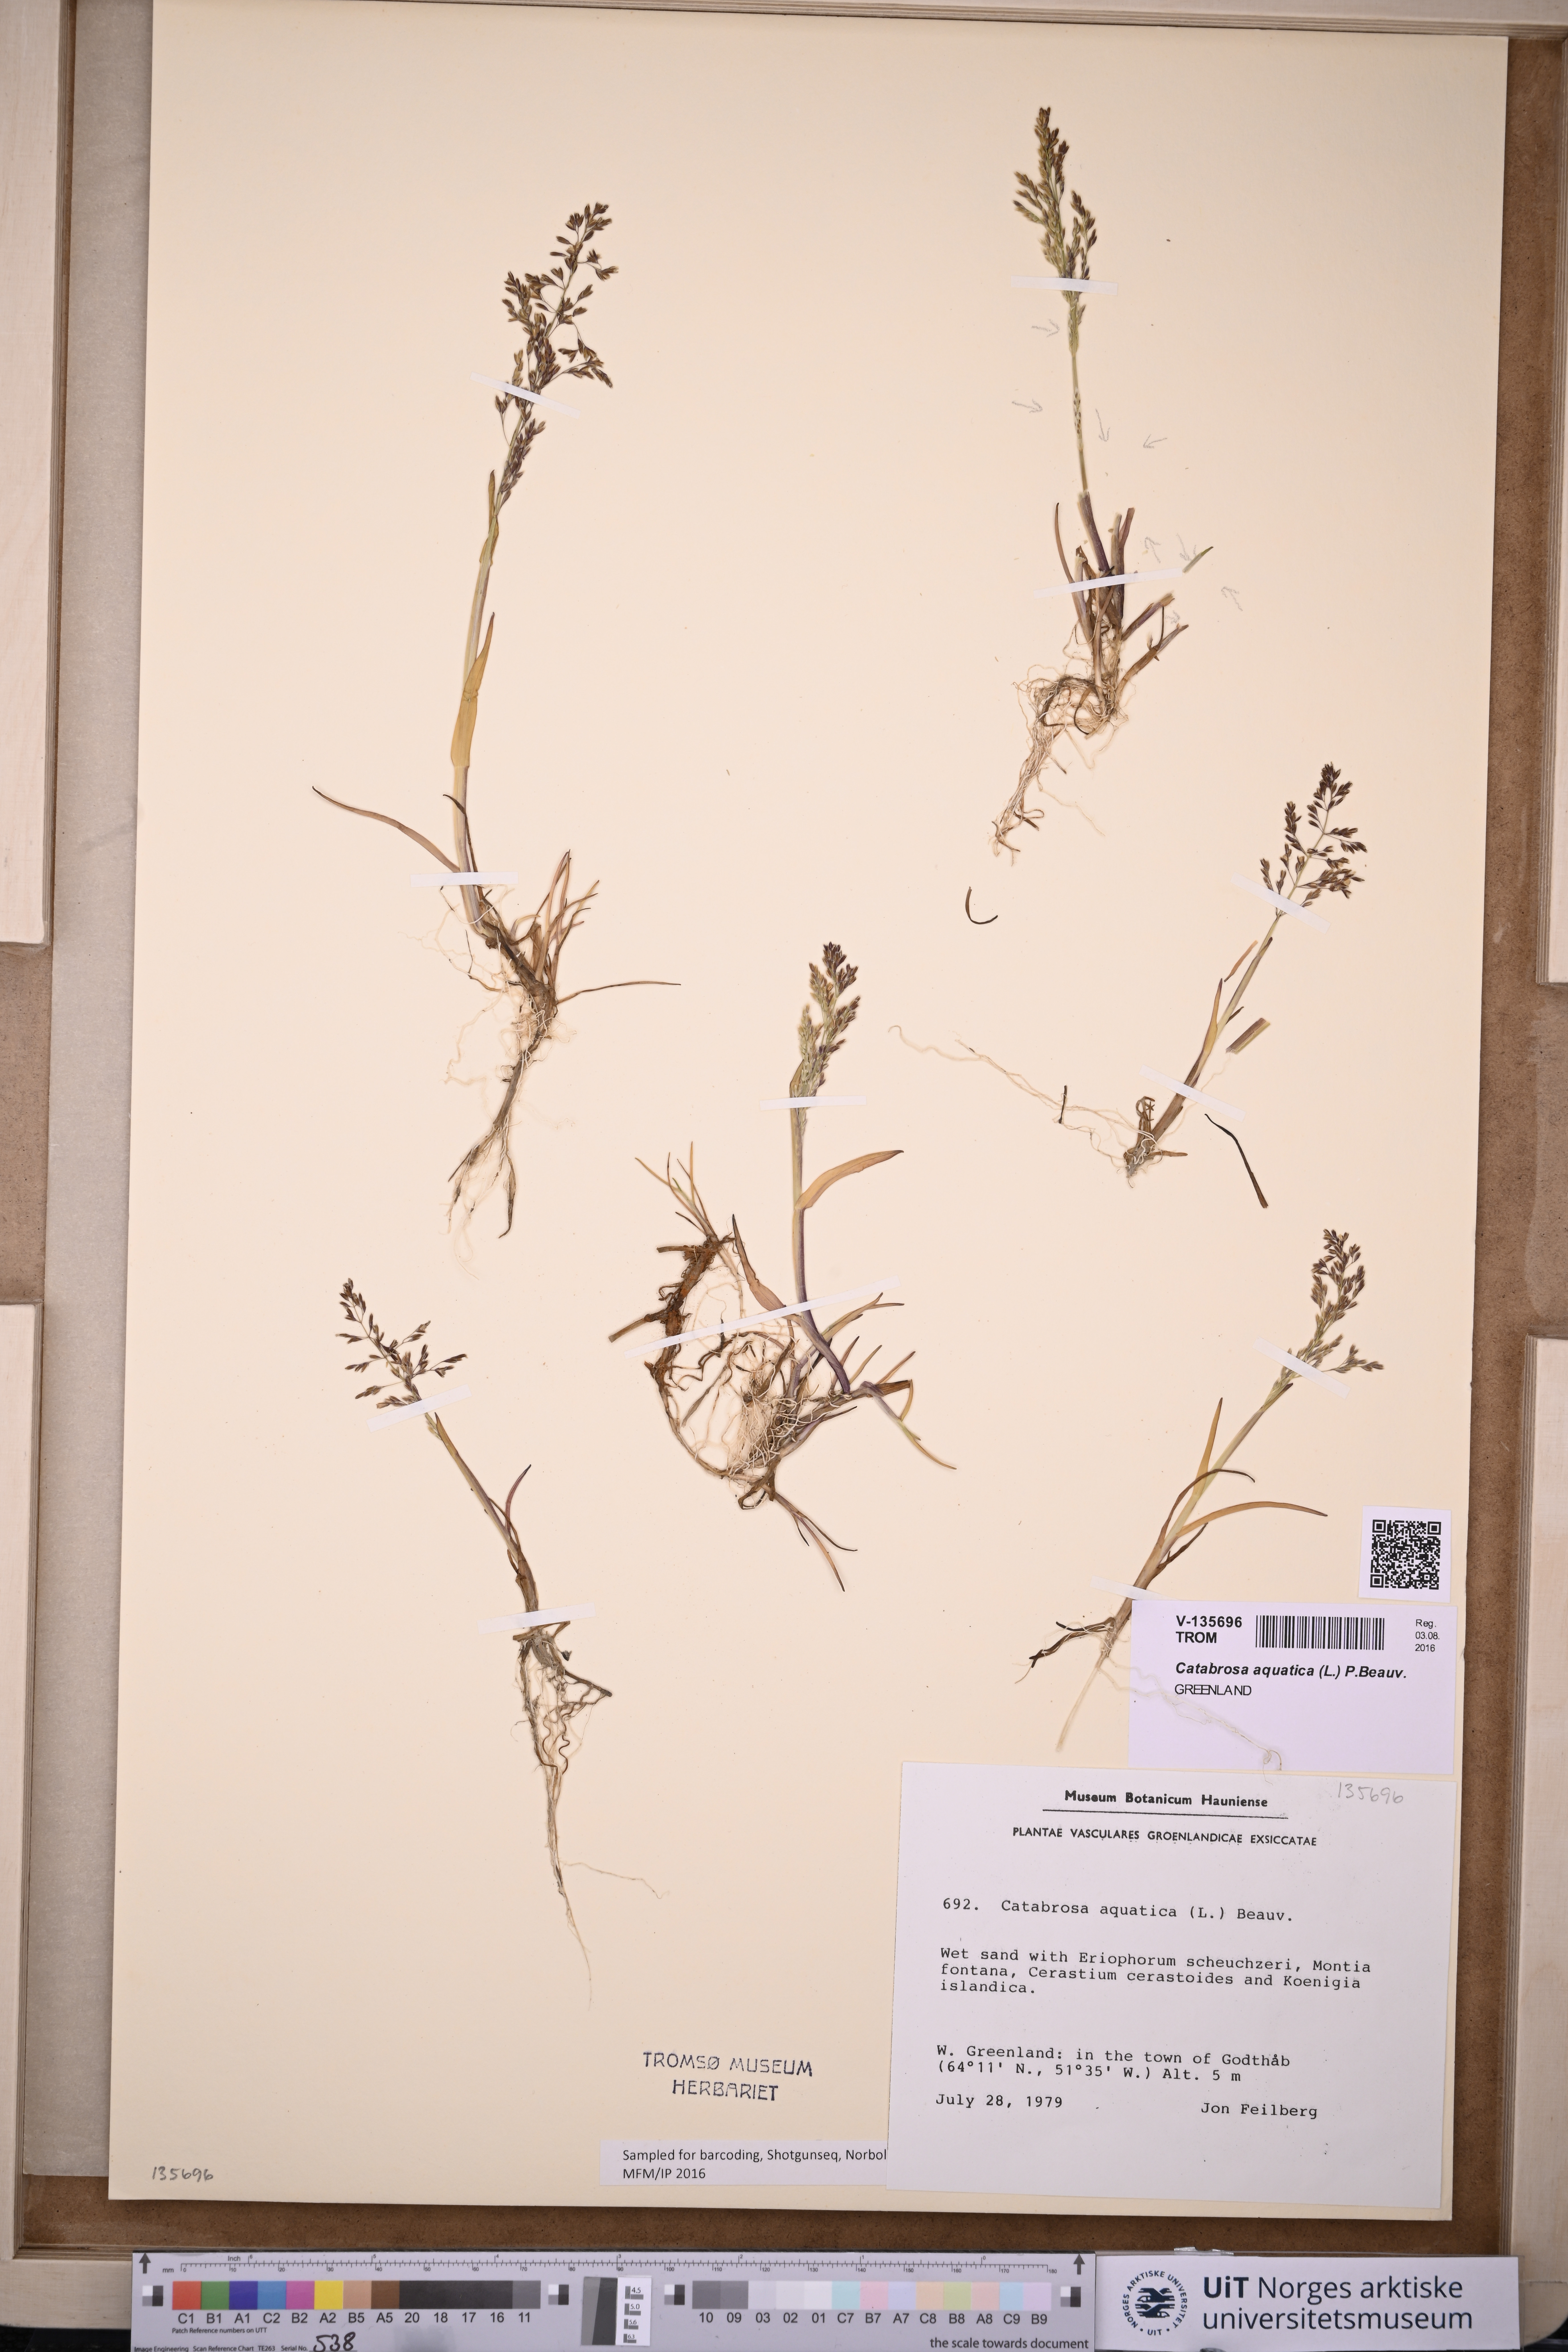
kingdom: Plantae
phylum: Tracheophyta
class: Liliopsida
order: Poales
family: Poaceae
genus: Catabrosa
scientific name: Catabrosa aquatica
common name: Whorl-grass
